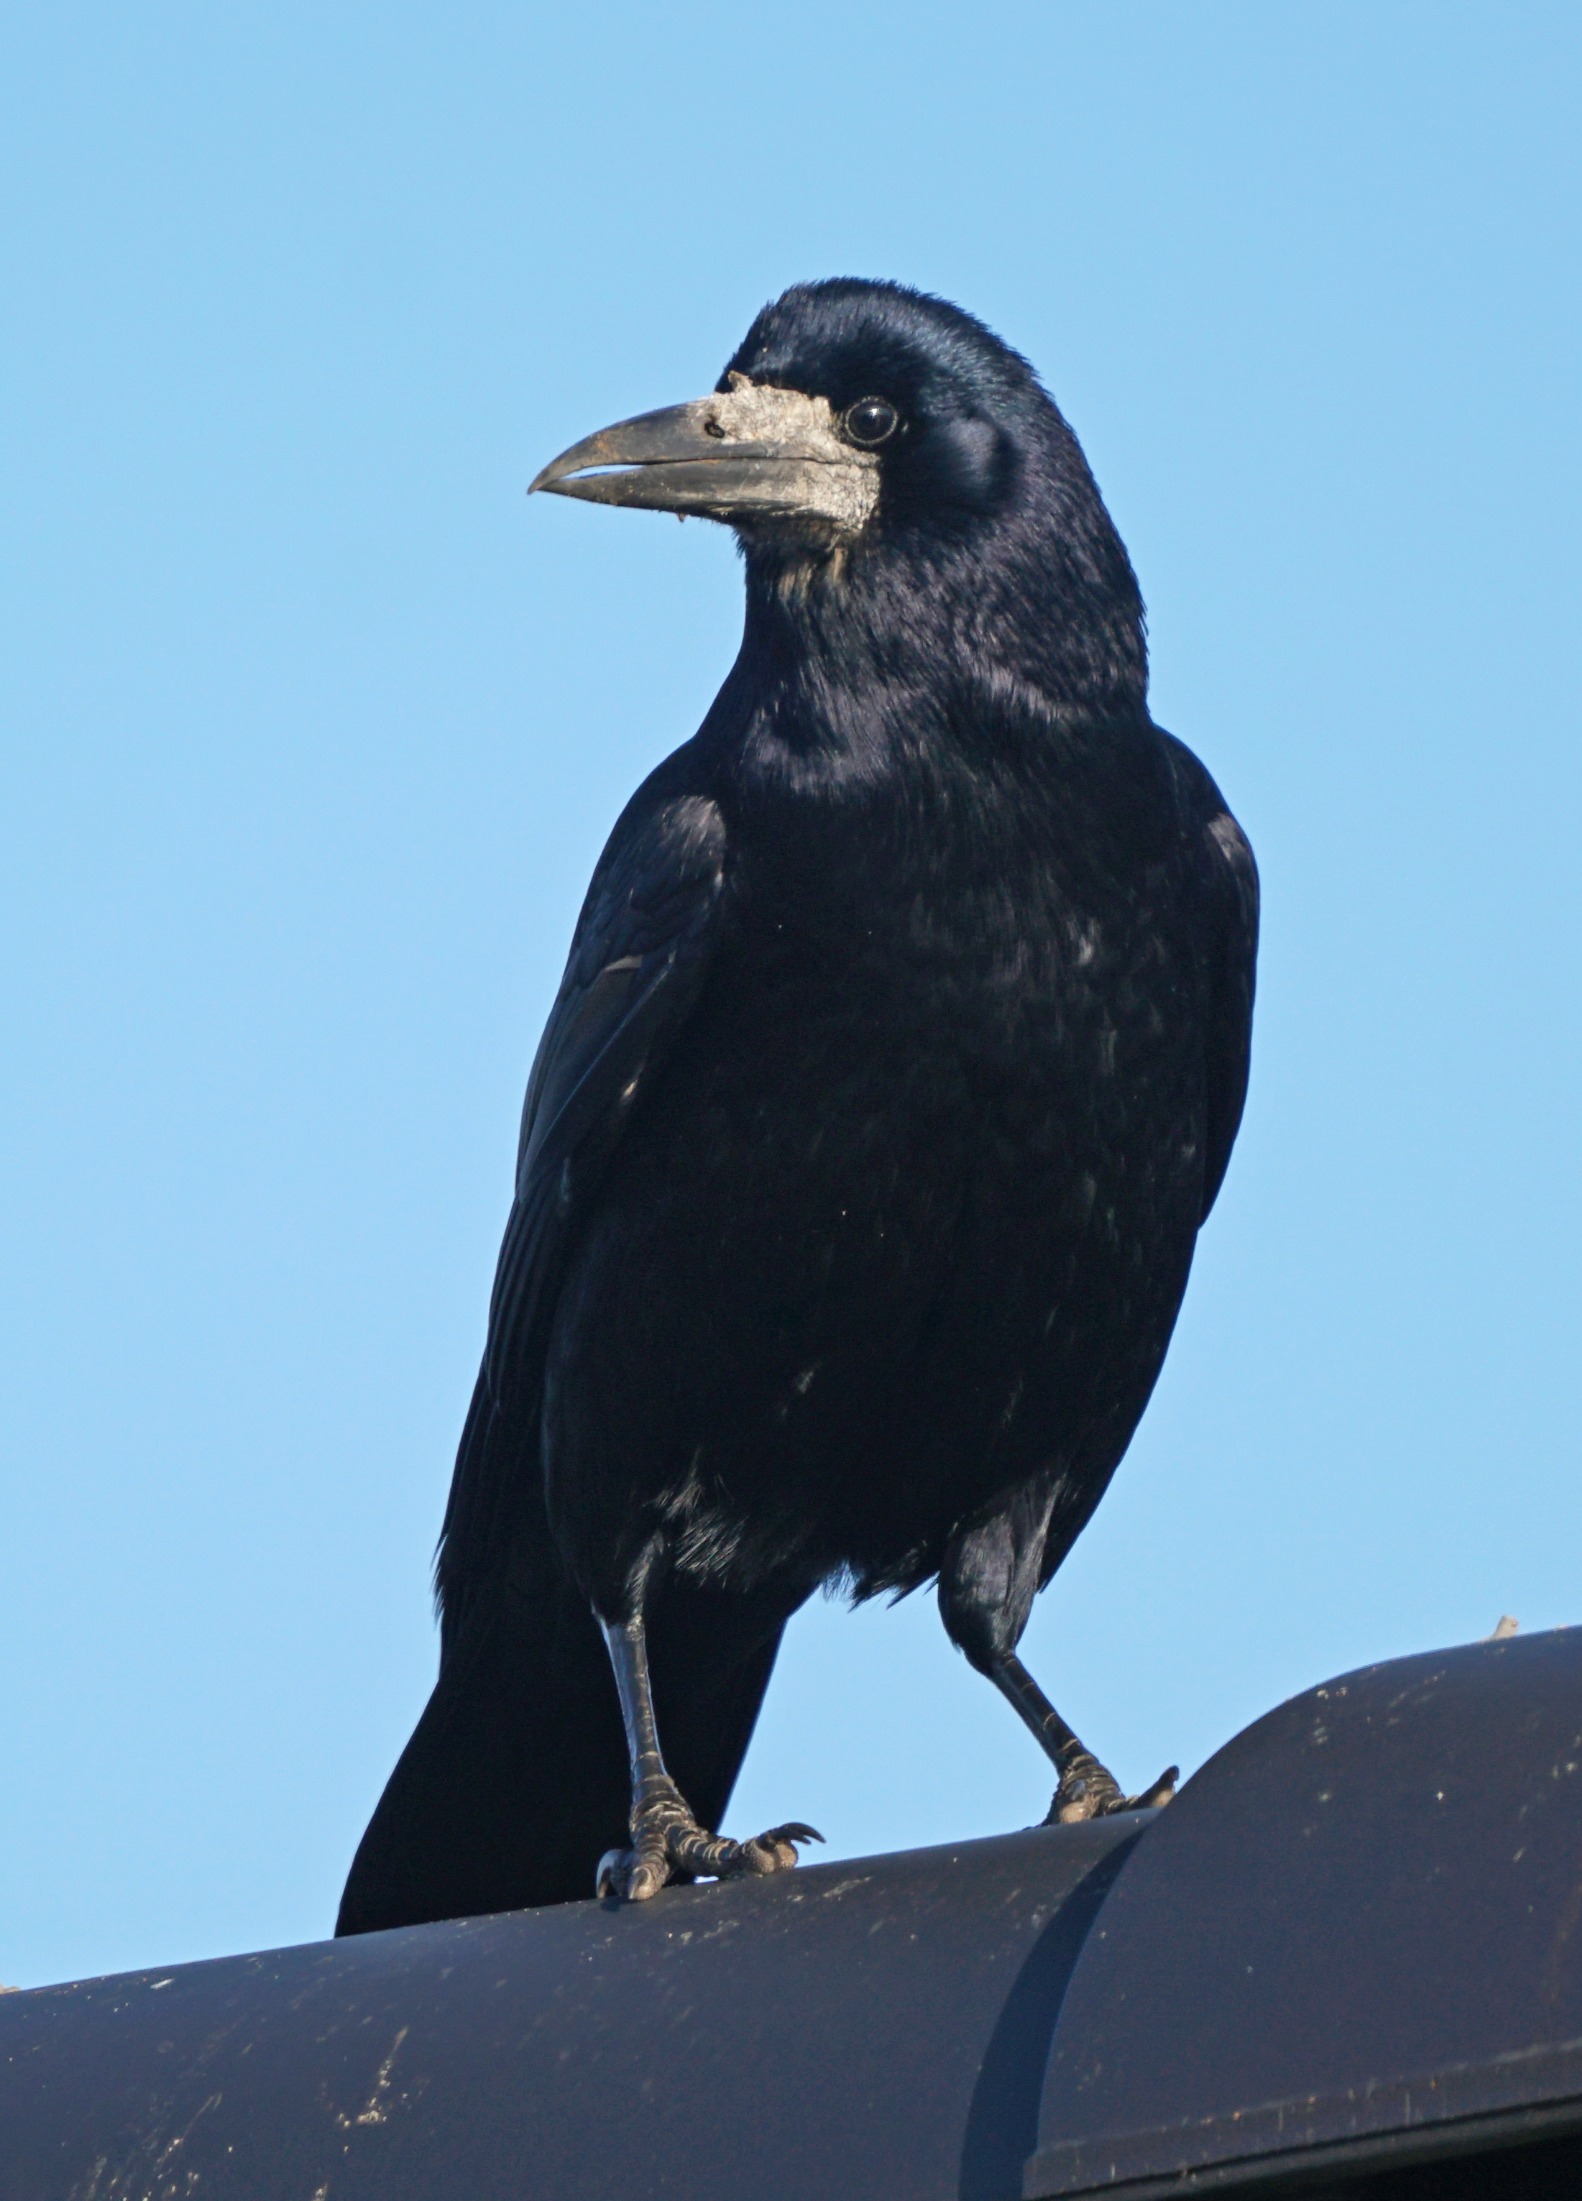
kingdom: Animalia
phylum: Chordata
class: Aves
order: Passeriformes
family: Corvidae
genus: Corvus
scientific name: Corvus frugilegus
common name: Råge
